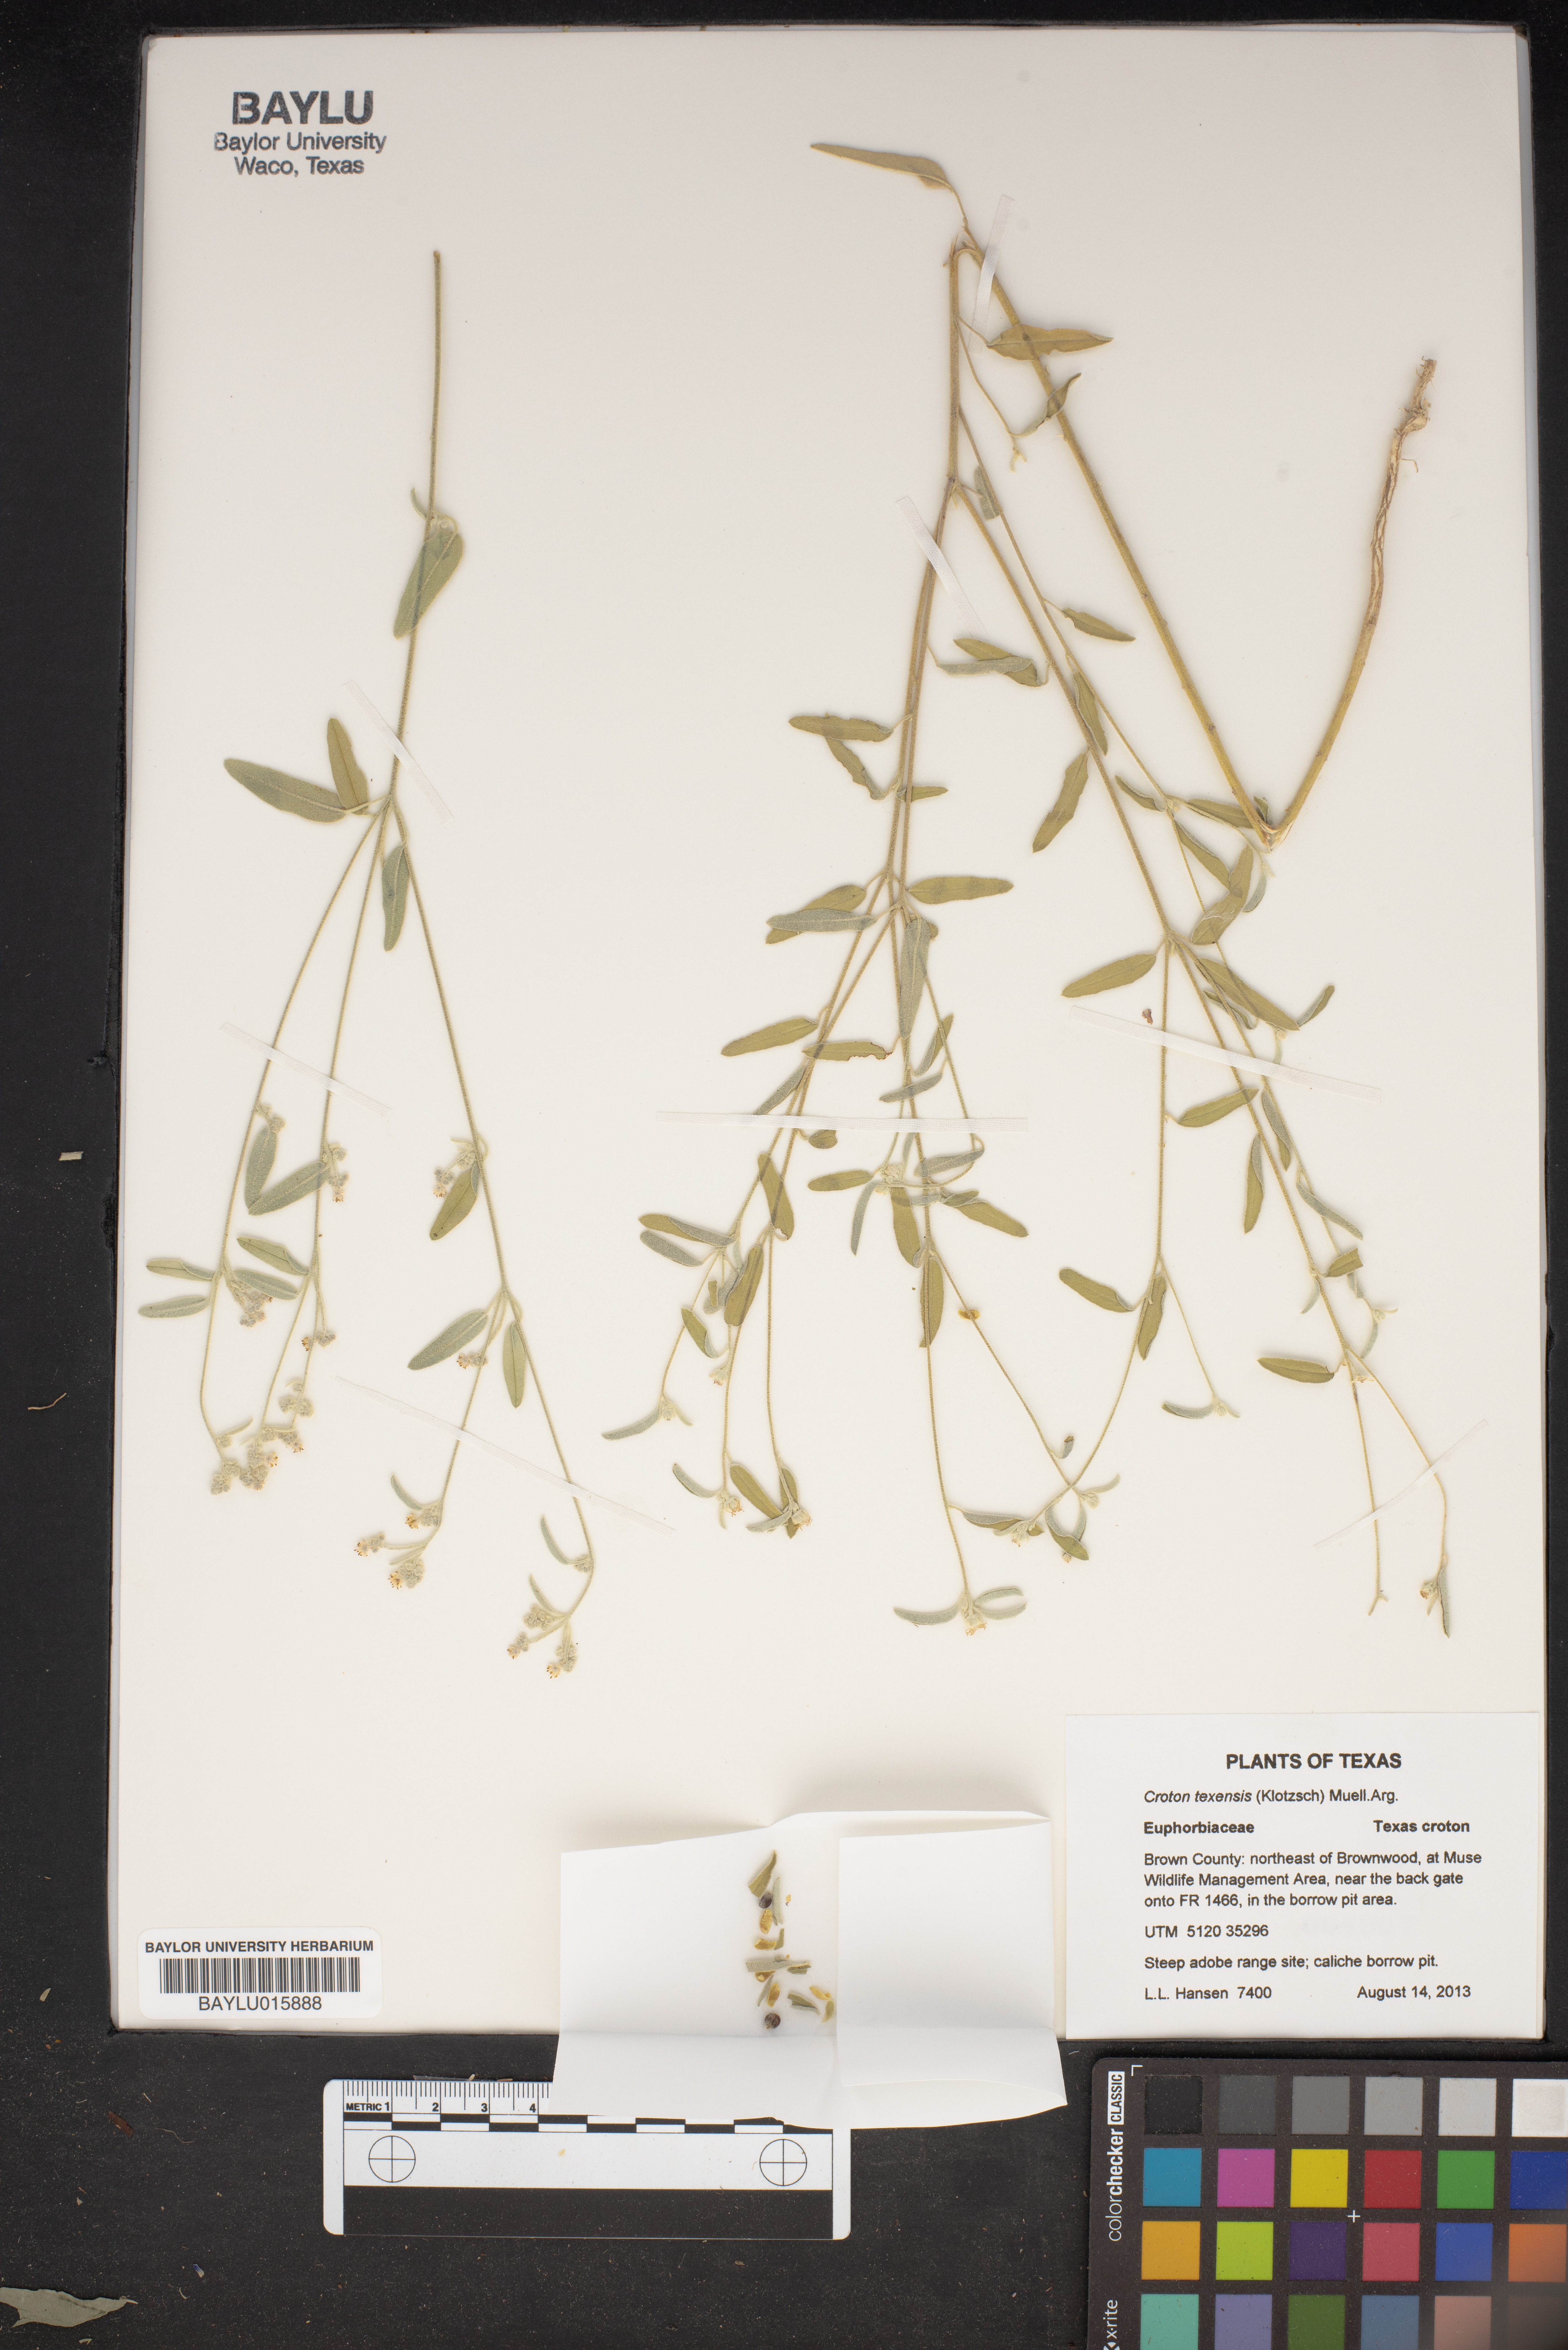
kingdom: Plantae
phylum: Tracheophyta
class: Magnoliopsida
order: Malpighiales
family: Euphorbiaceae
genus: Croton
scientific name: Croton texensis
